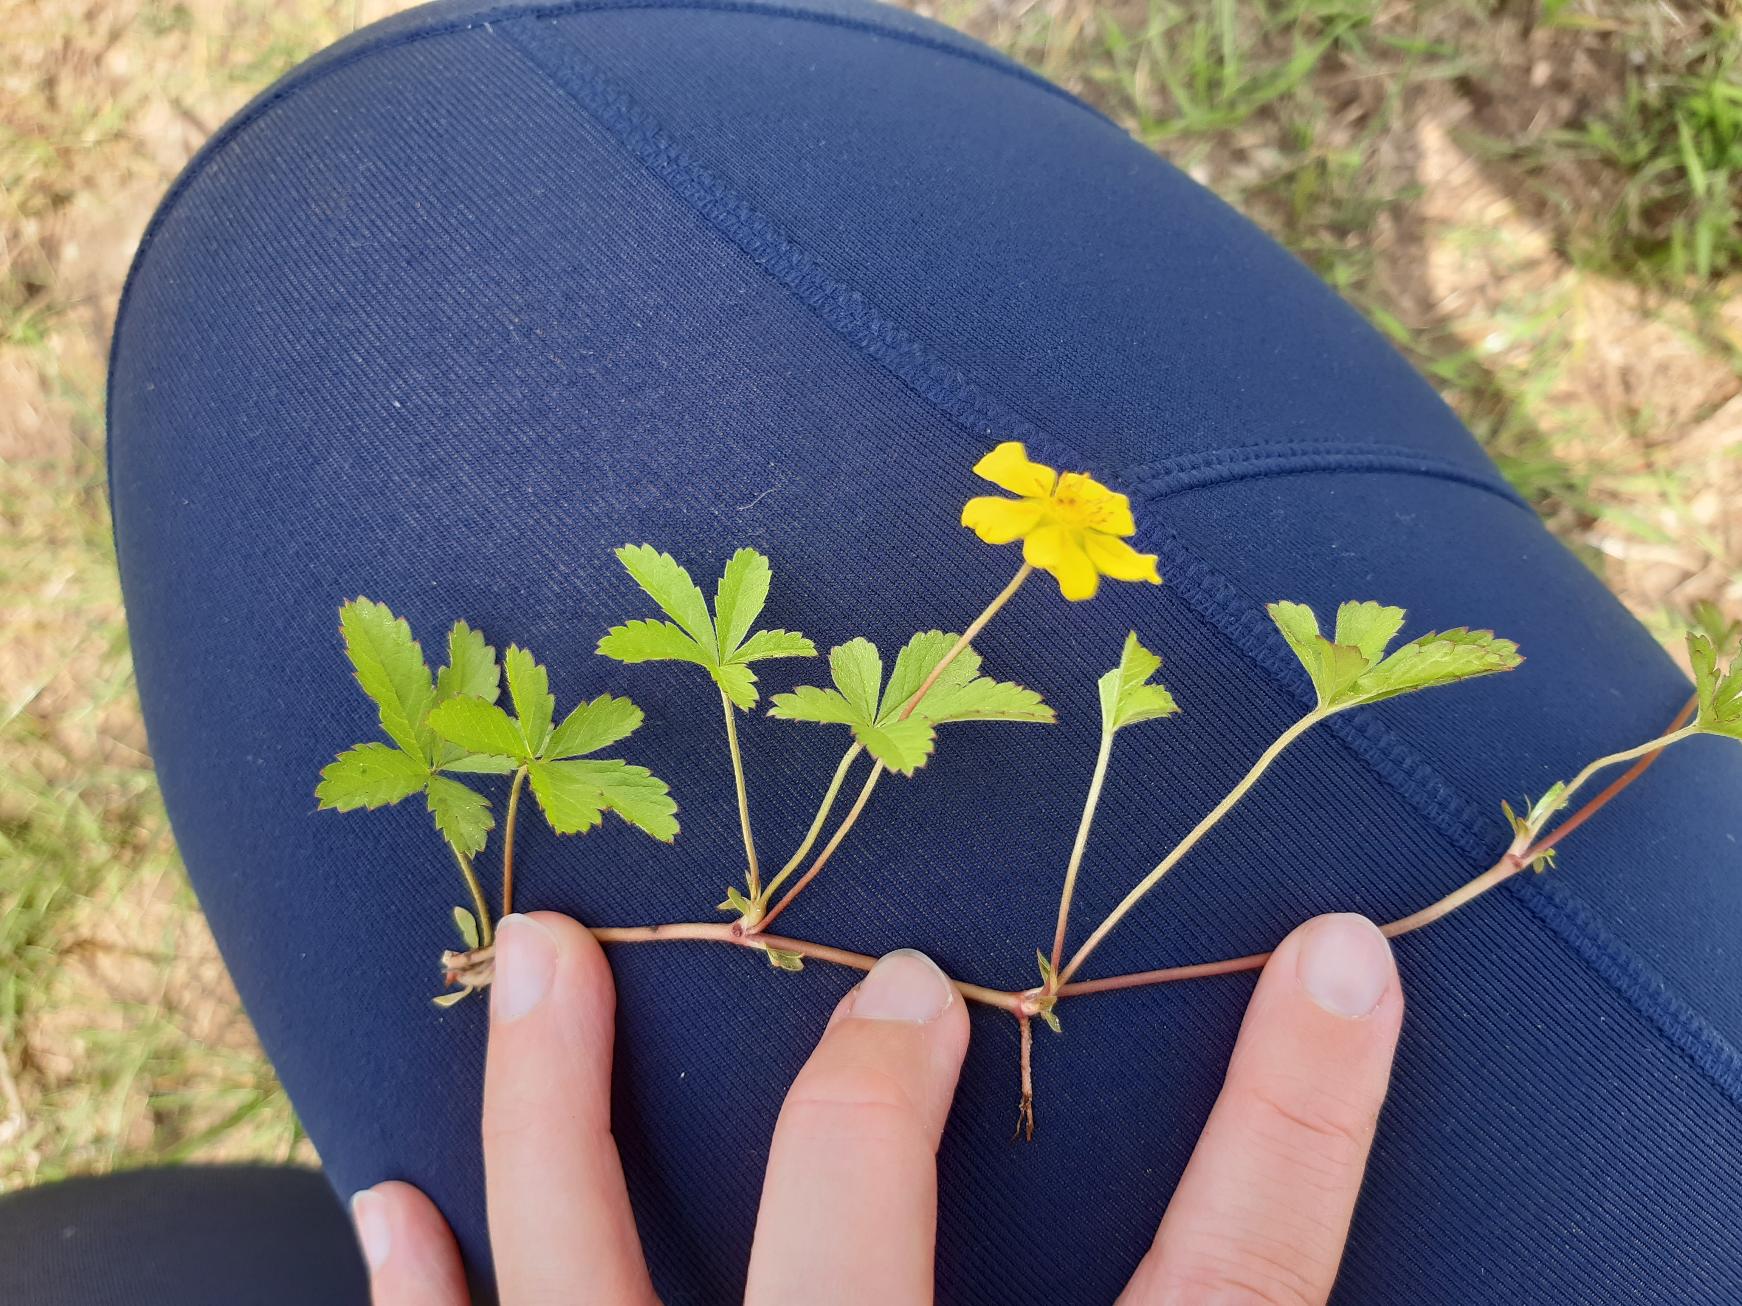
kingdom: Plantae
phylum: Tracheophyta
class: Magnoliopsida
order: Rosales
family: Rosaceae
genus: Potentilla
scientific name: Potentilla reptans
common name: Krybende potentil
